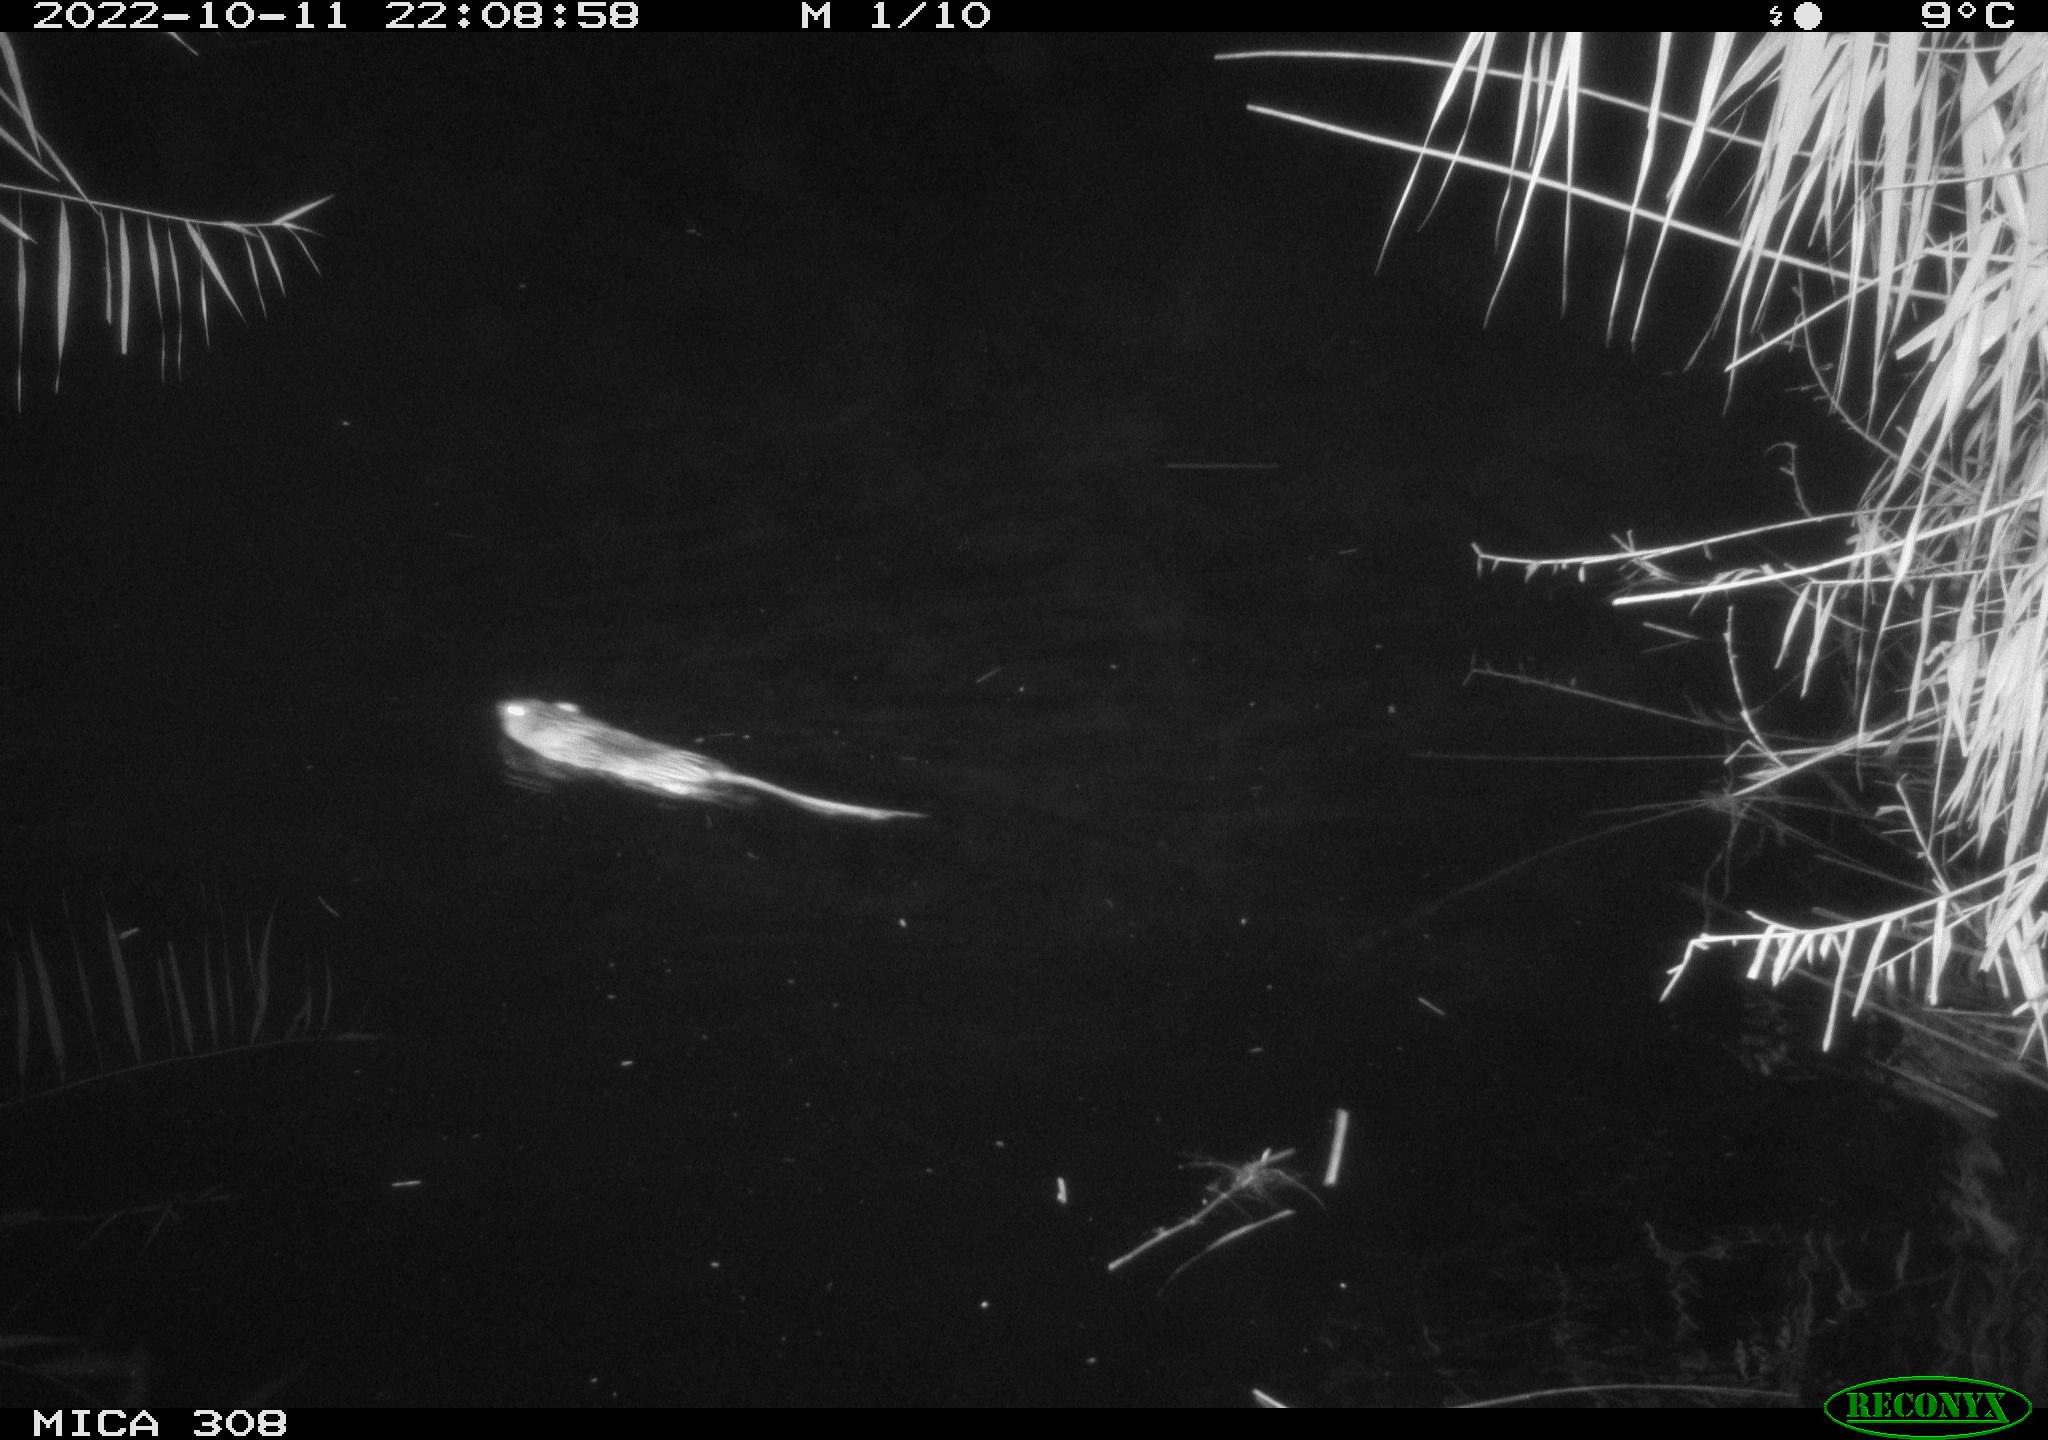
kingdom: Animalia
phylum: Chordata
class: Mammalia
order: Rodentia
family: Cricetidae
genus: Ondatra
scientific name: Ondatra zibethicus
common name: Muskrat
